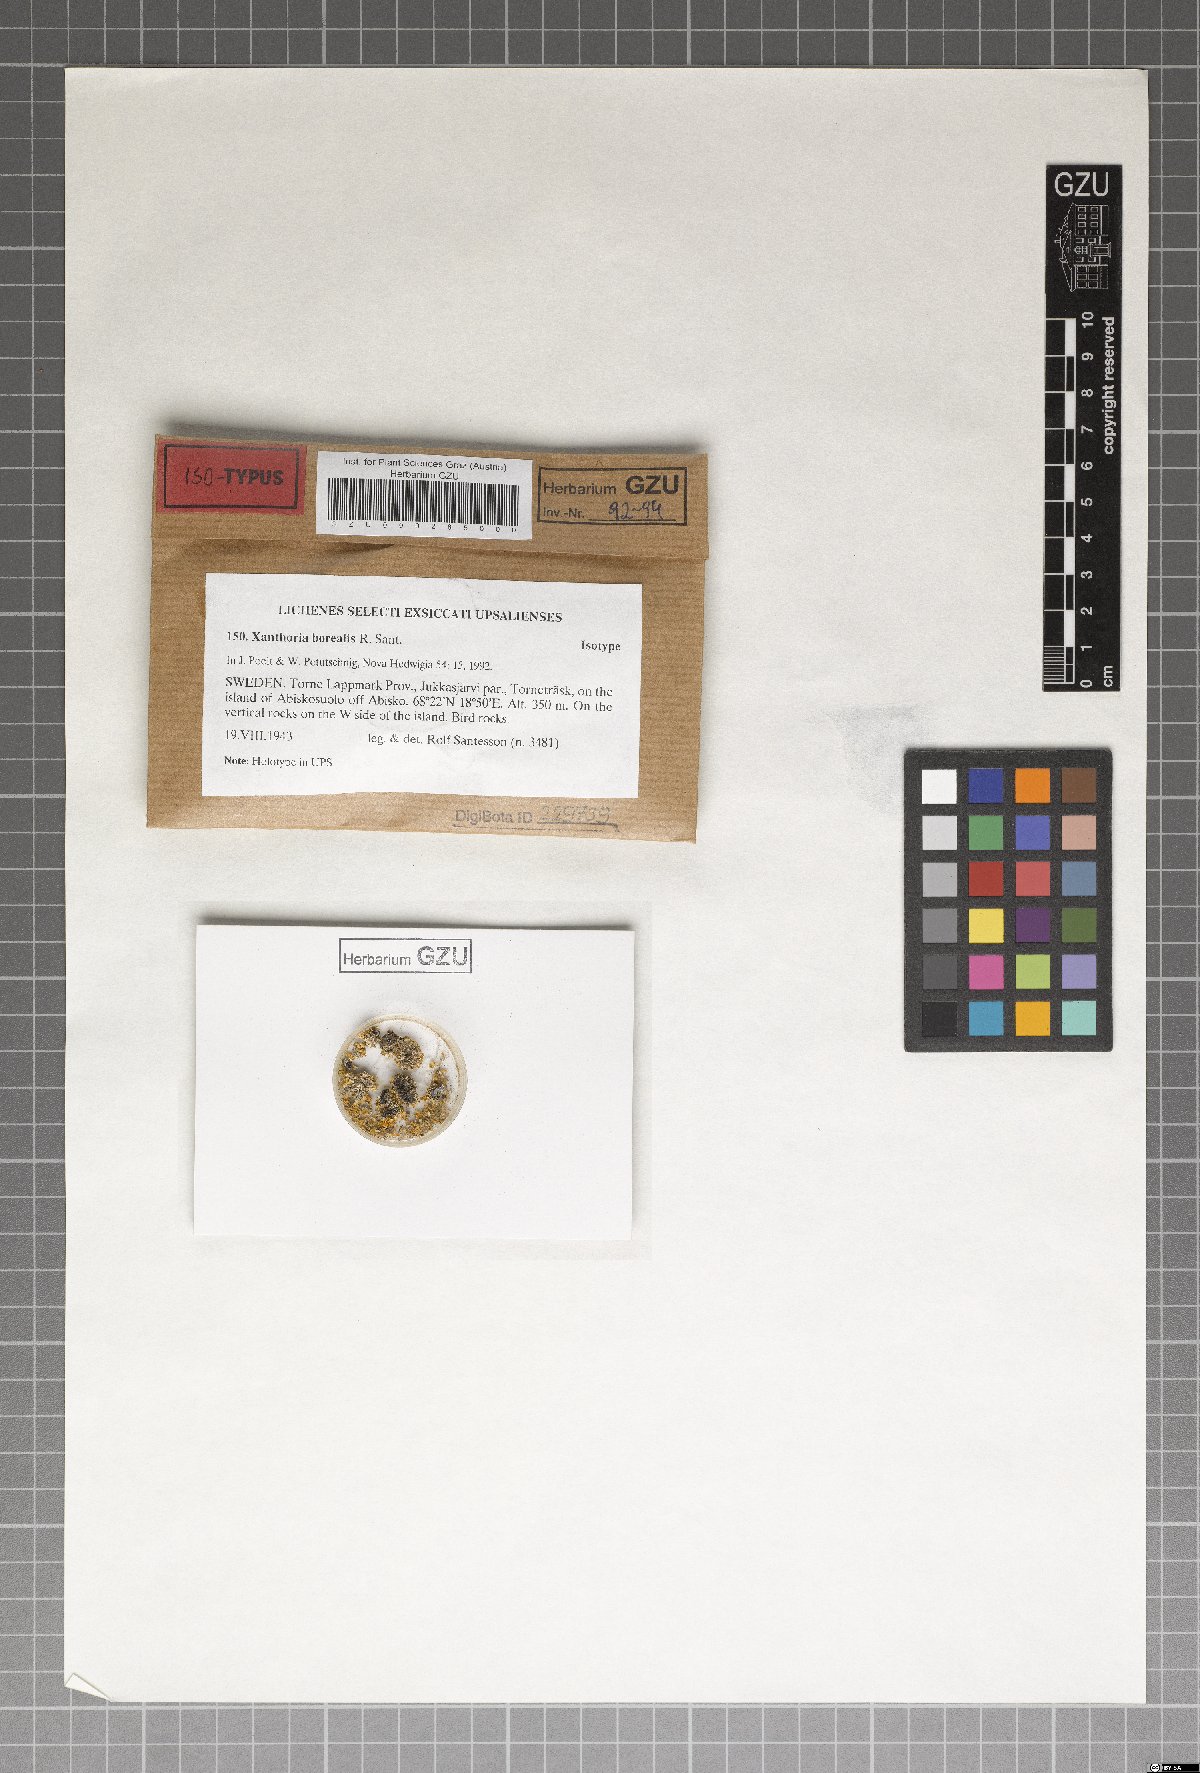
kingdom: Fungi
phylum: Ascomycota
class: Lecanoromycetes
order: Teloschistales
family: Teloschistaceae
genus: Gallowayella
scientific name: Gallowayella borealis
